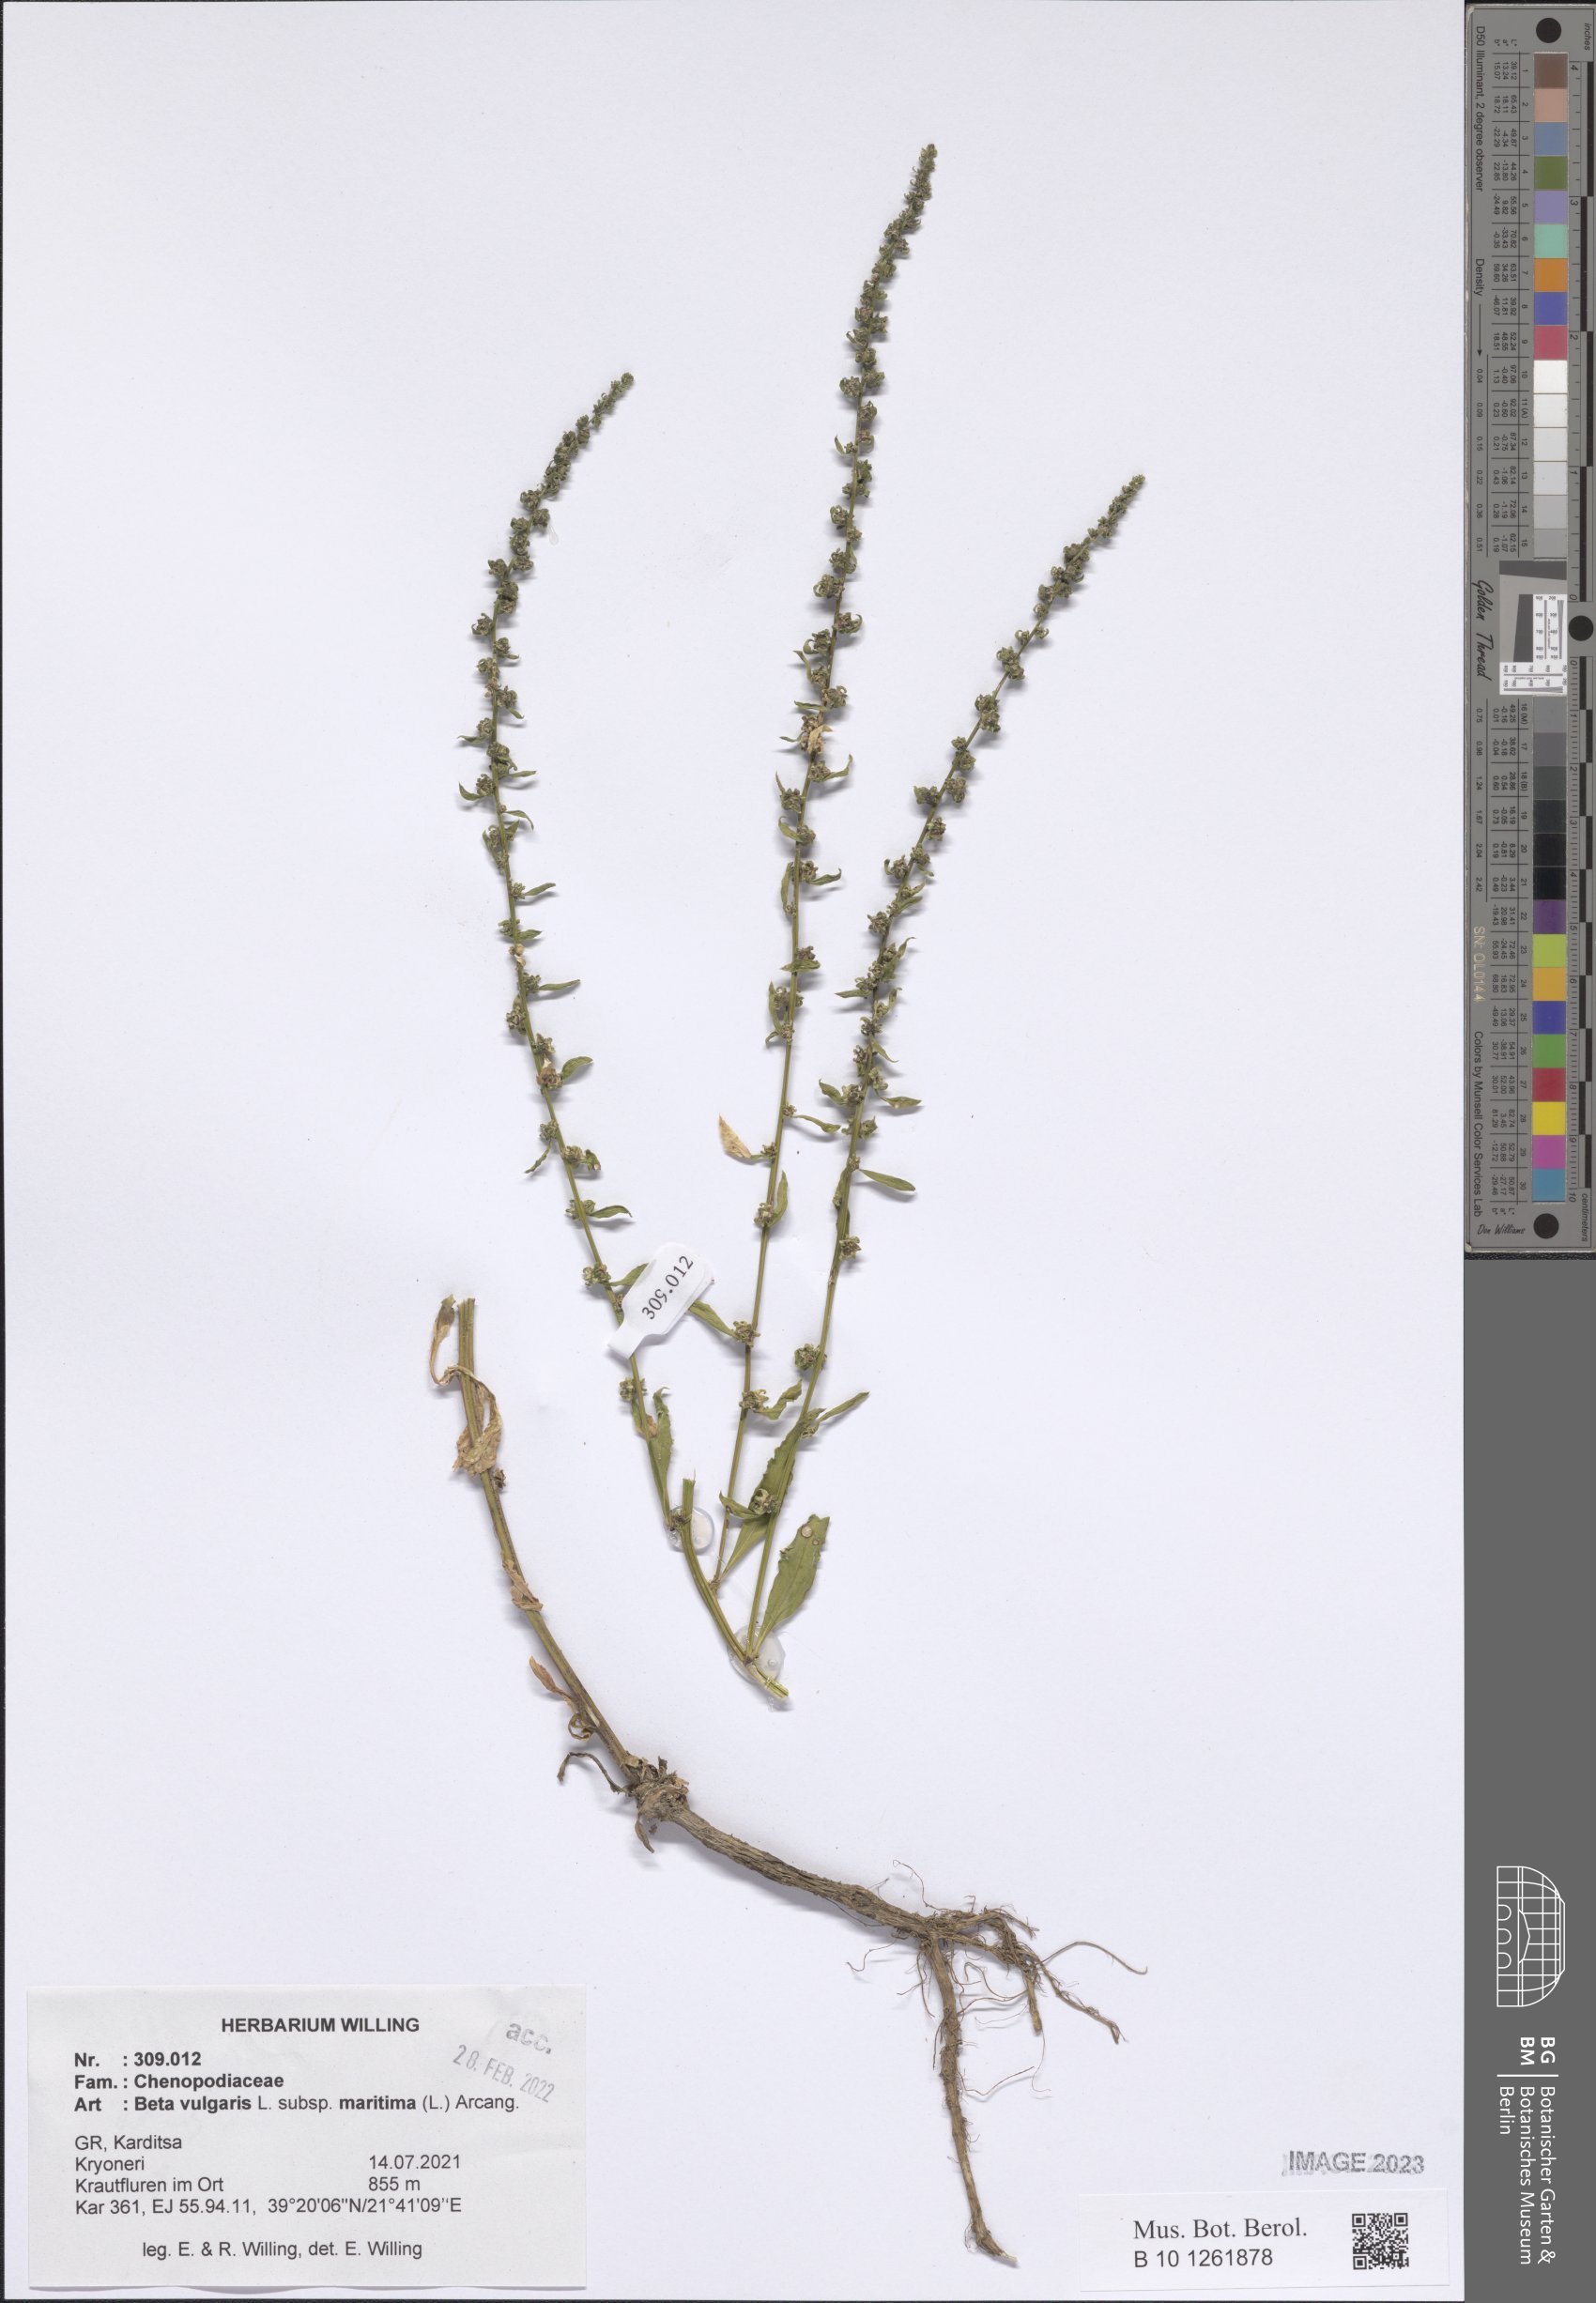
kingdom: Plantae
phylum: Tracheophyta
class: Magnoliopsida
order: Caryophyllales
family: Amaranthaceae
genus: Beta
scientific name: Beta maritima
